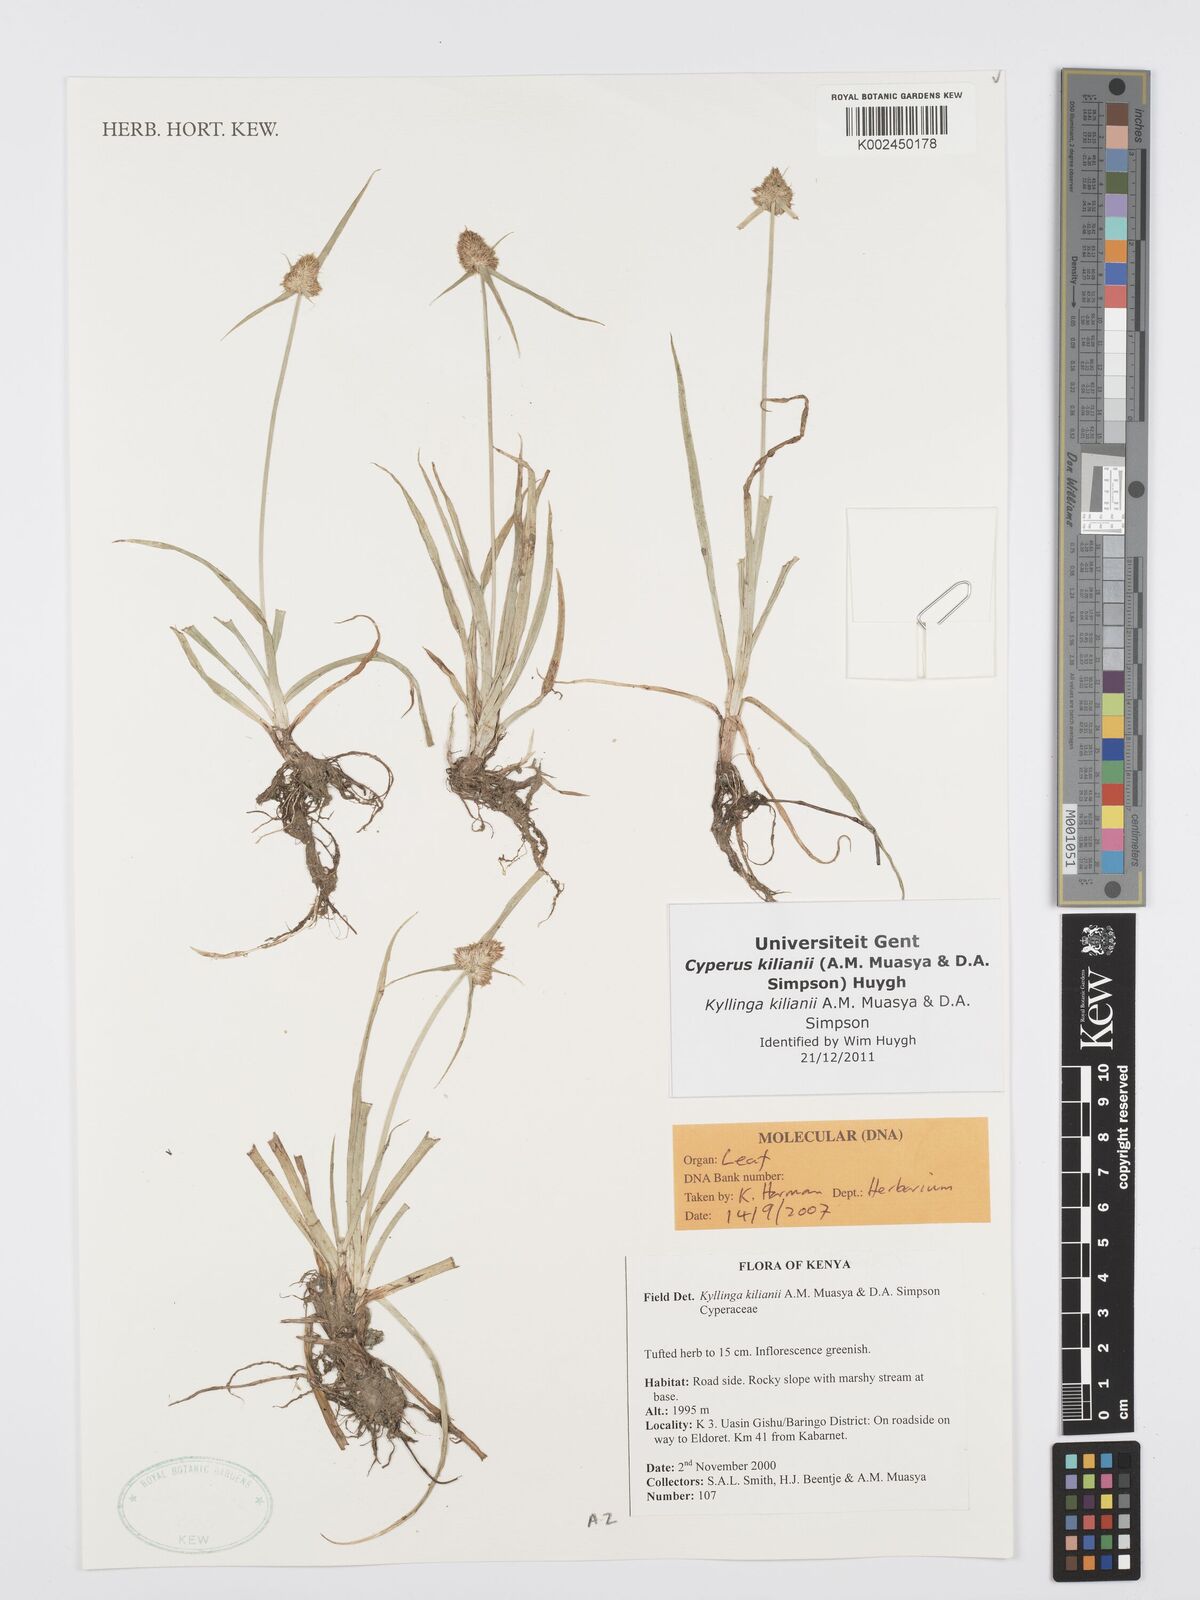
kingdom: Plantae
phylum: Tracheophyta
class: Liliopsida
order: Poales
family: Cyperaceae
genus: Cyperus
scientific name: Cyperus kilianii
